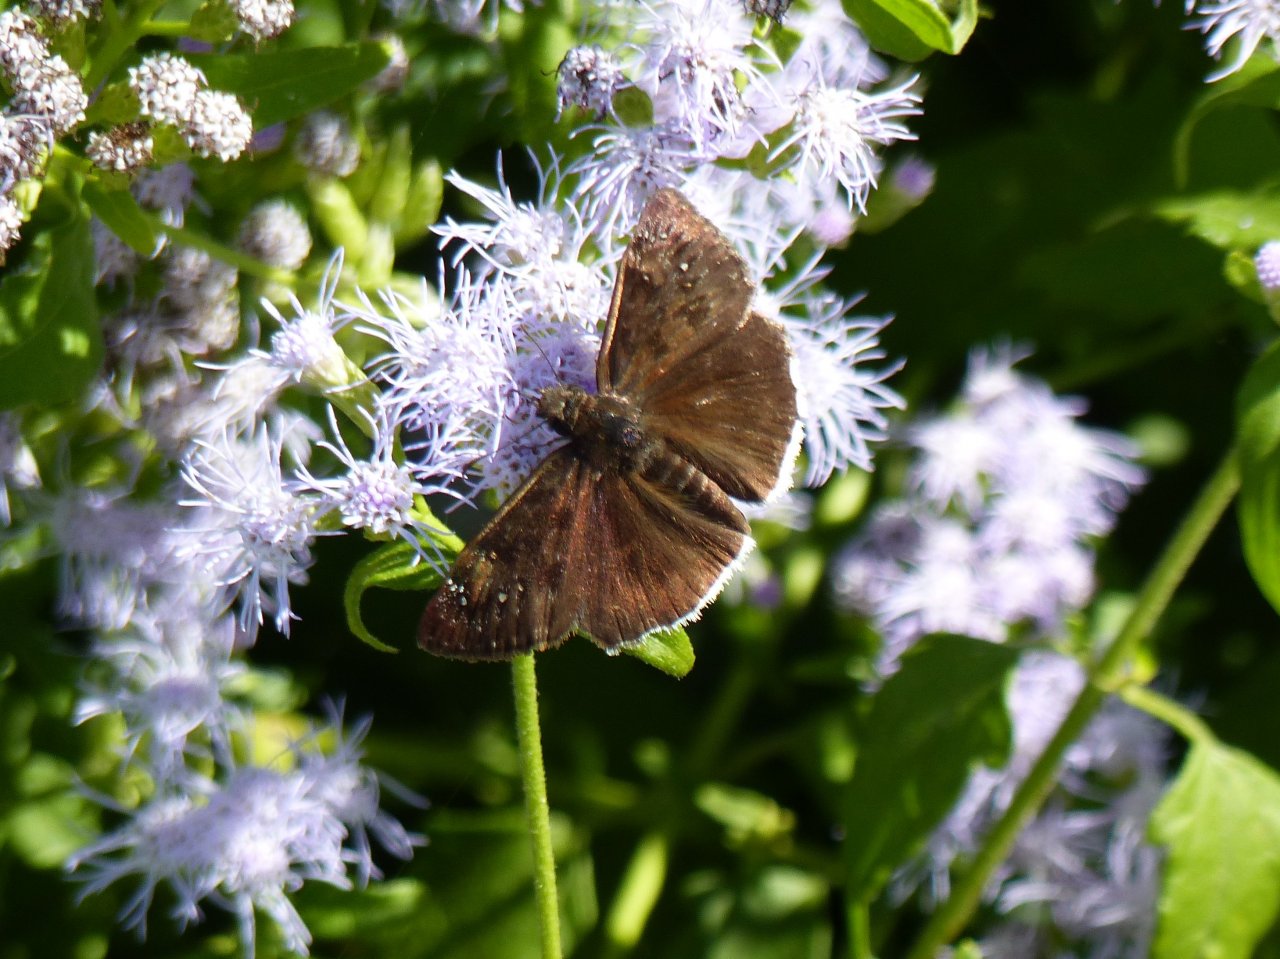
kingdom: Animalia
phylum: Arthropoda
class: Insecta
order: Lepidoptera
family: Hesperiidae
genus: Erynnis
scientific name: Erynnis tristis
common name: Mournful Duskywing
